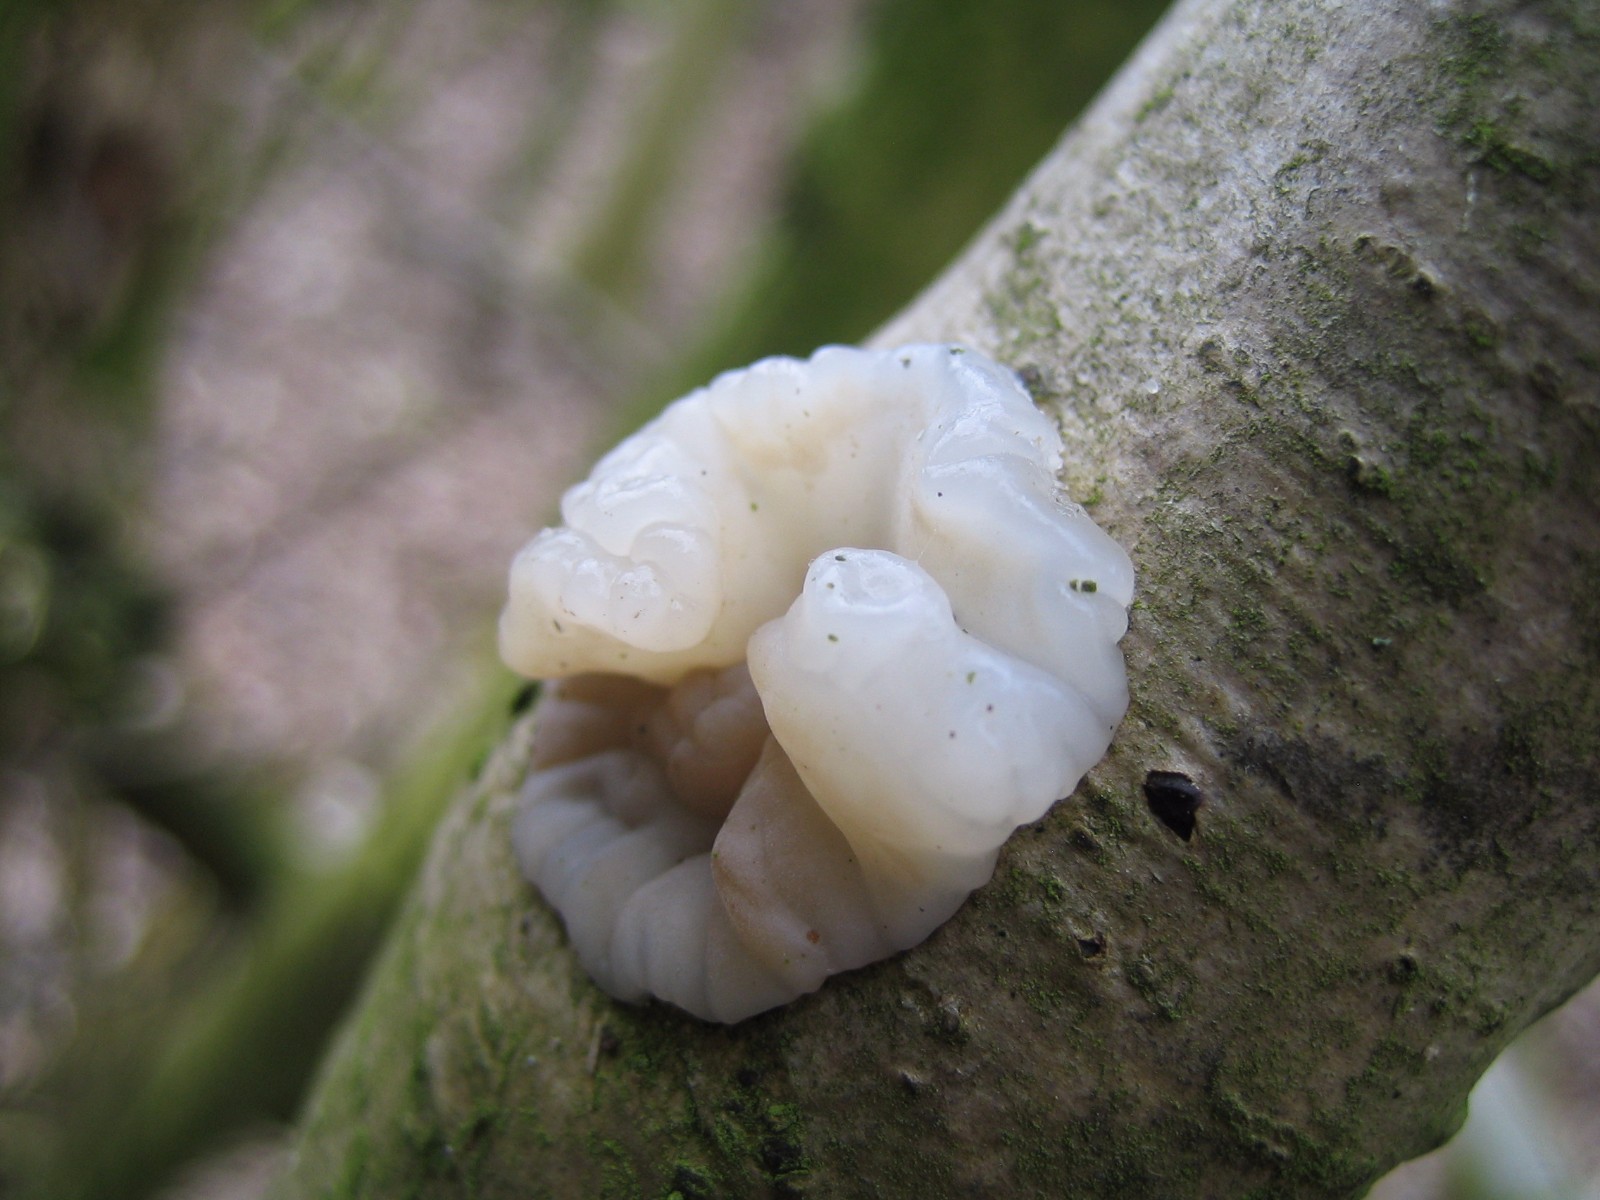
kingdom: Fungi
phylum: Basidiomycota
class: Agaricomycetes
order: Auriculariales
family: Auriculariaceae
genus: Exidia
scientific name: Exidia thuretiana
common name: hvidlig bævretop
